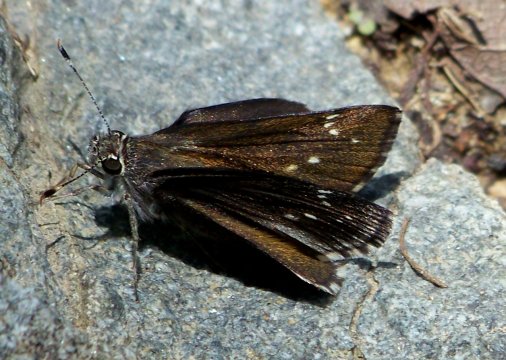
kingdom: Animalia
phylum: Arthropoda
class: Insecta
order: Lepidoptera
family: Hesperiidae
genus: Mastor
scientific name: Mastor exoteria
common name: Large Roadside-Skipper
